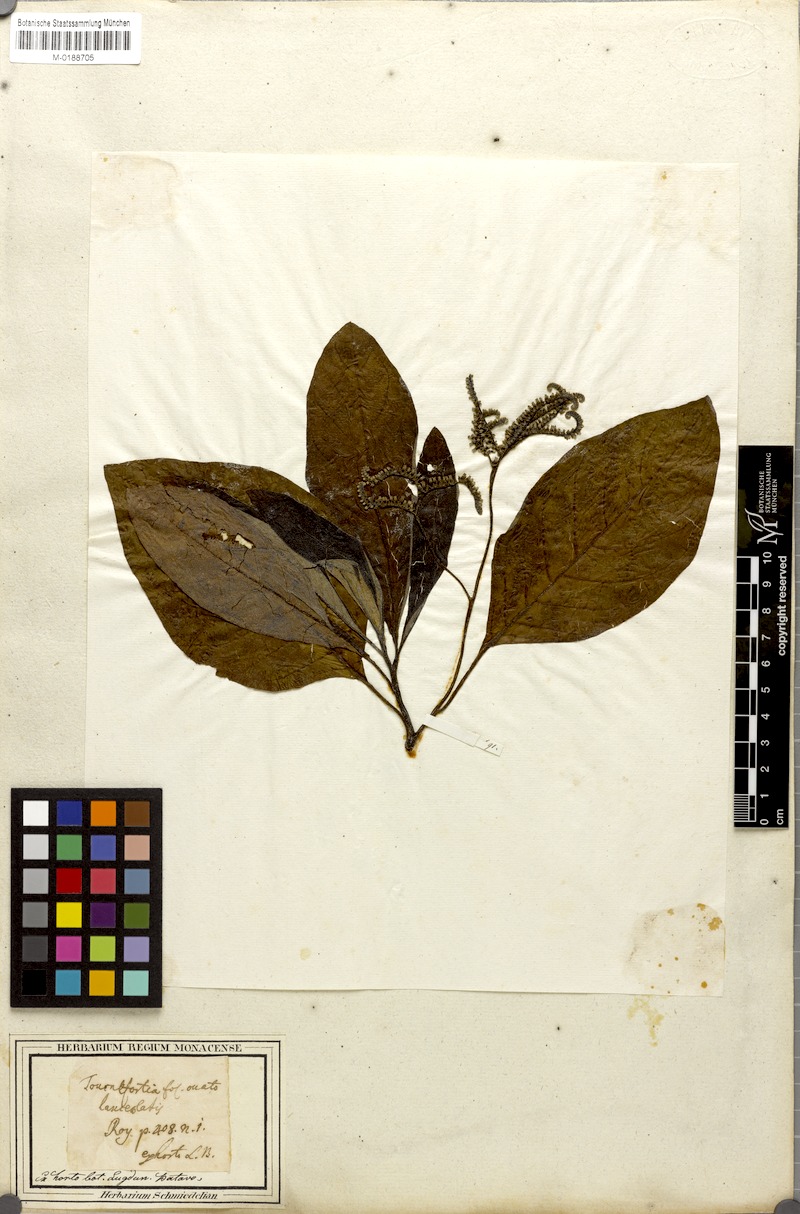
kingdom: Plantae
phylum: Tracheophyta
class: Magnoliopsida
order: Boraginales
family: Heliotropiaceae
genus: Heliotropium
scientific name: Heliotropium foetidissimum
